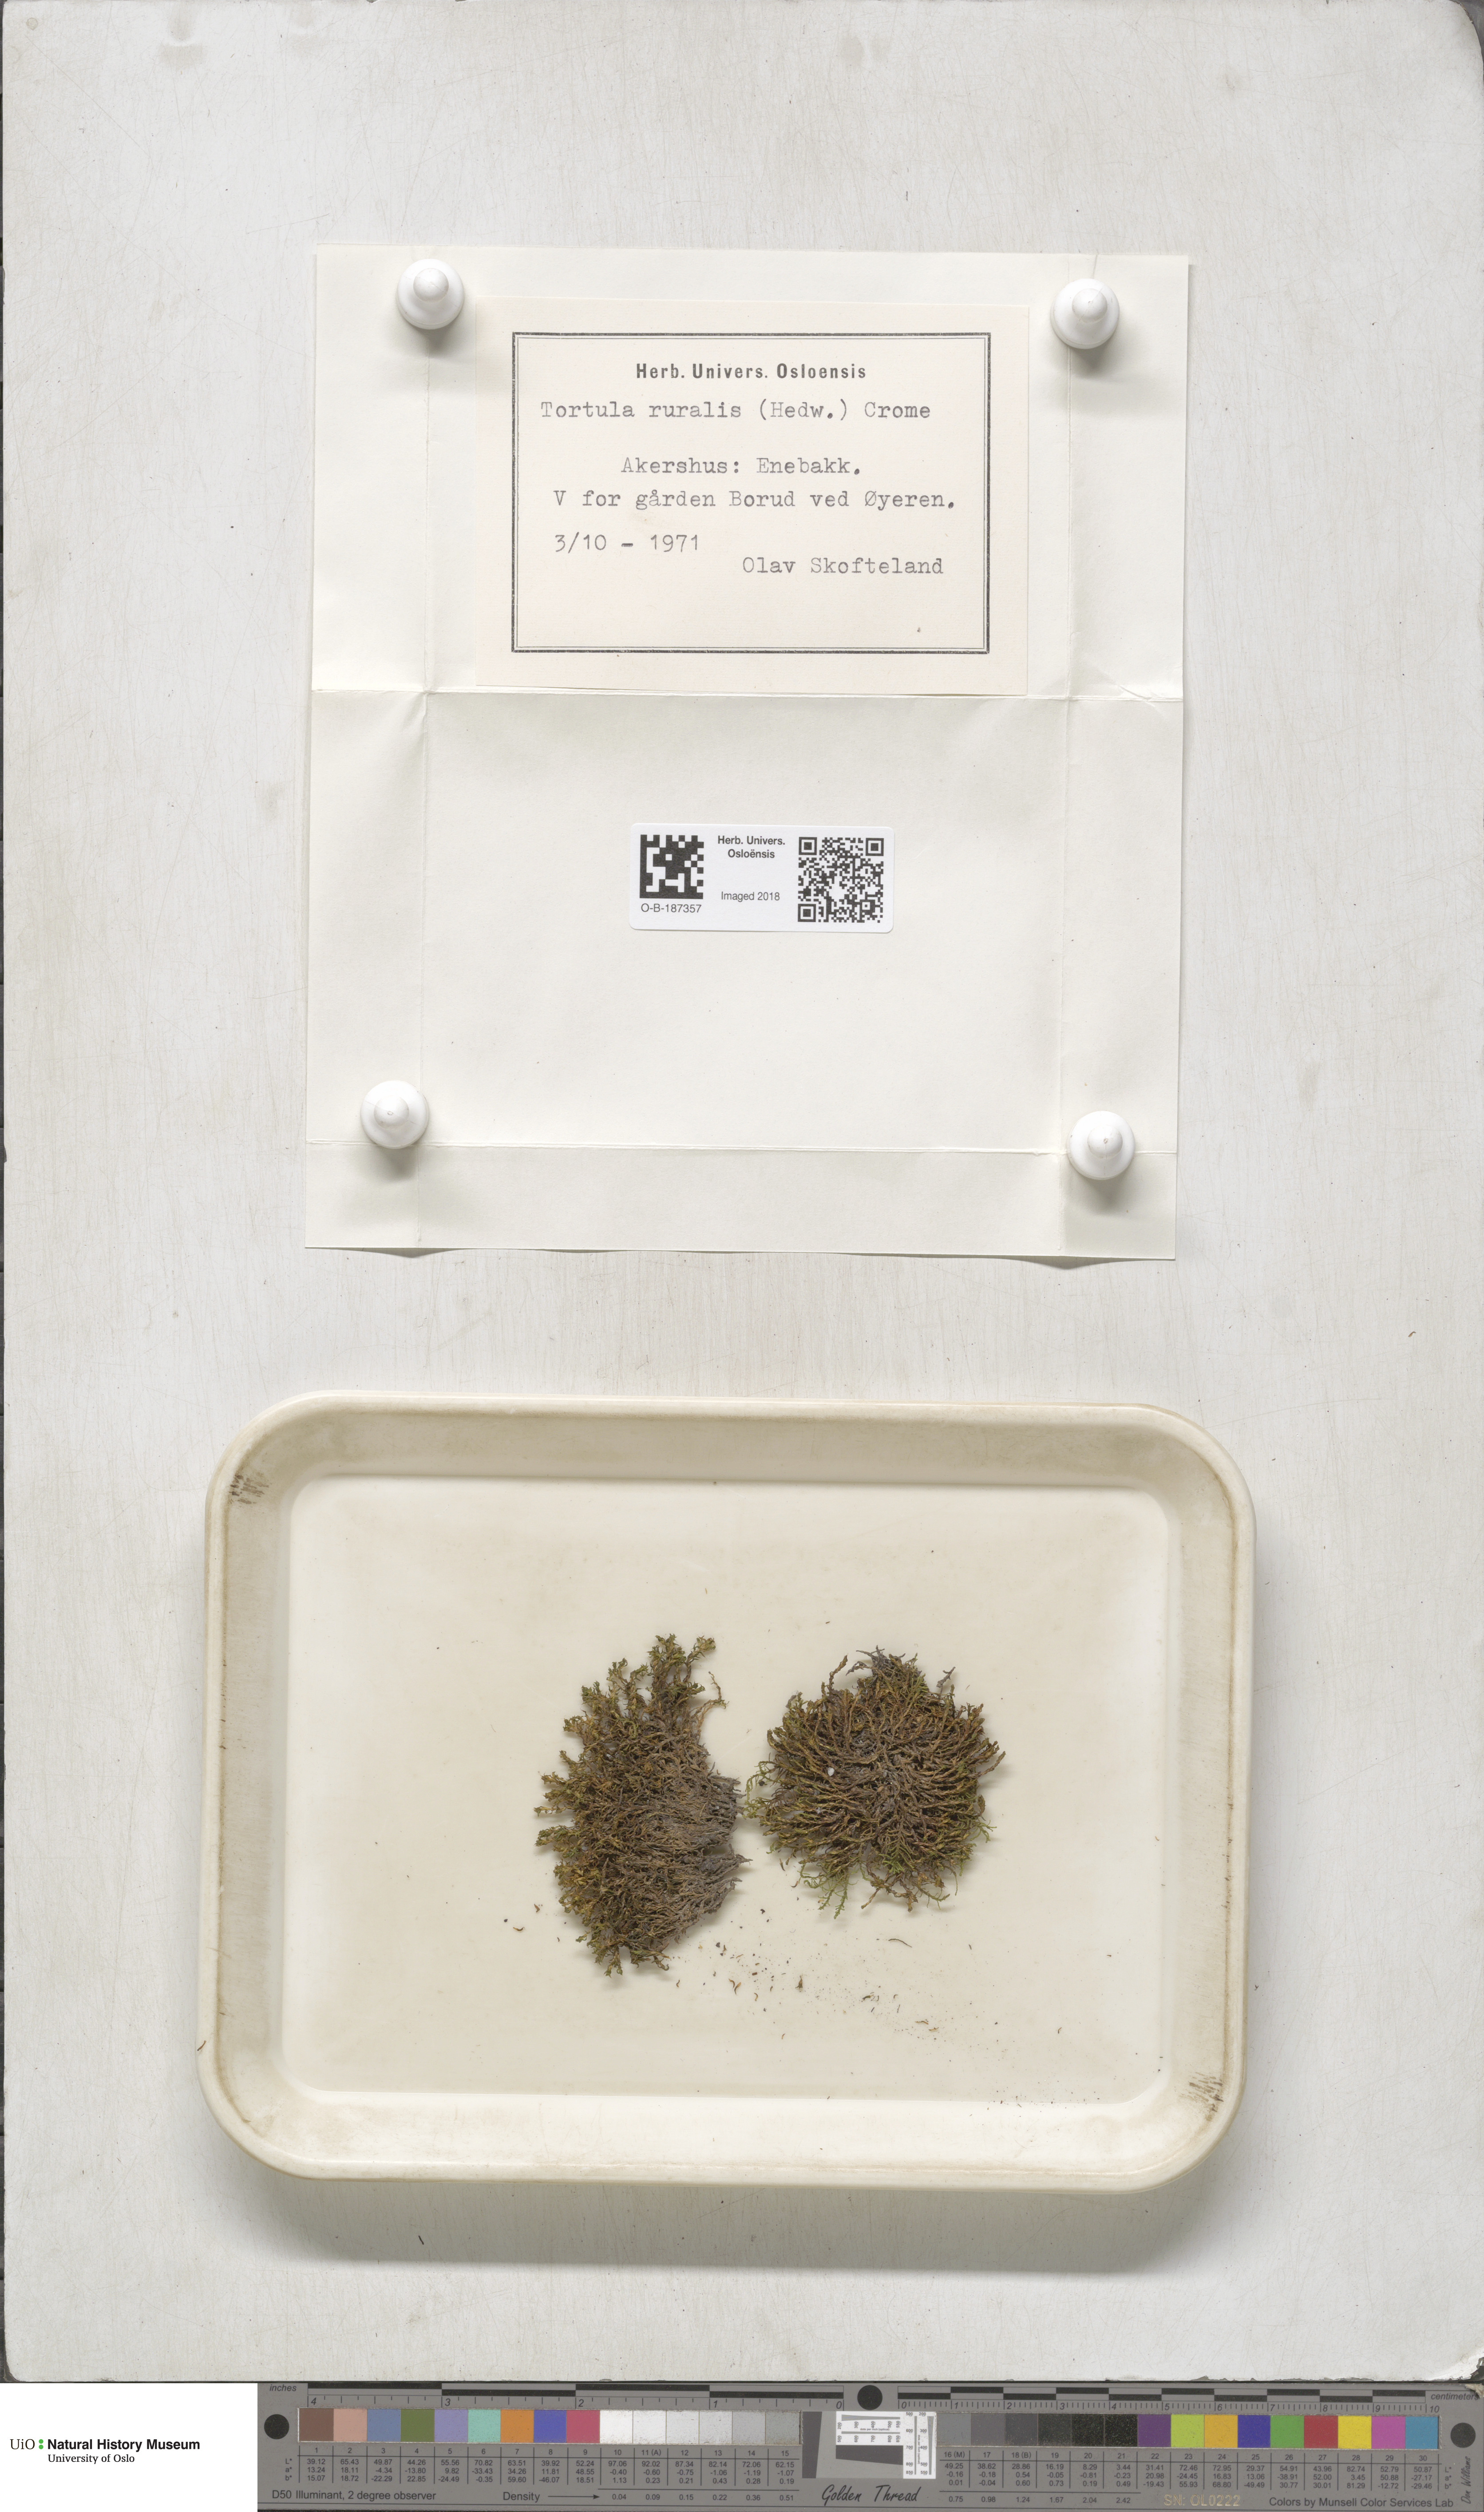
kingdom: Plantae
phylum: Bryophyta
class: Bryopsida
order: Pottiales
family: Pottiaceae
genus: Syntrichia
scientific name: Syntrichia ruralis
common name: Sidewalk screw moss
